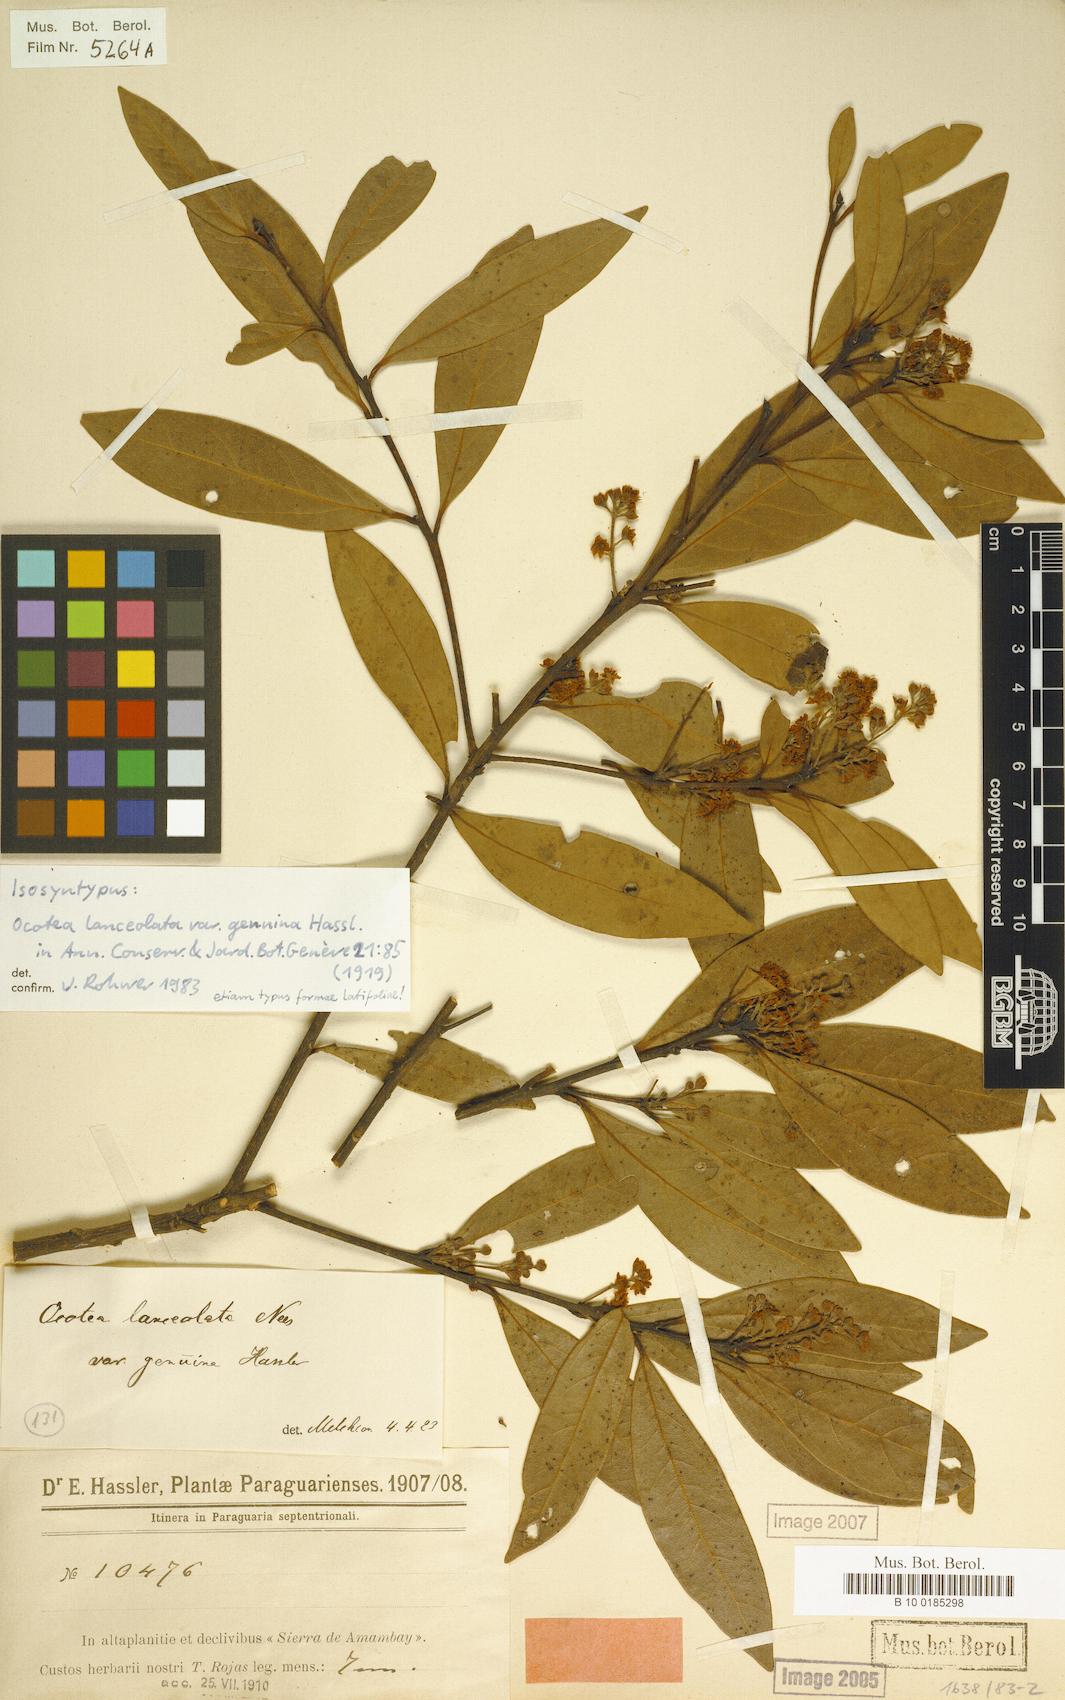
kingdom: Plantae
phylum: Tracheophyta
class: Magnoliopsida
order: Laurales
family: Lauraceae
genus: Ocotea
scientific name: Ocotea lancifolia
